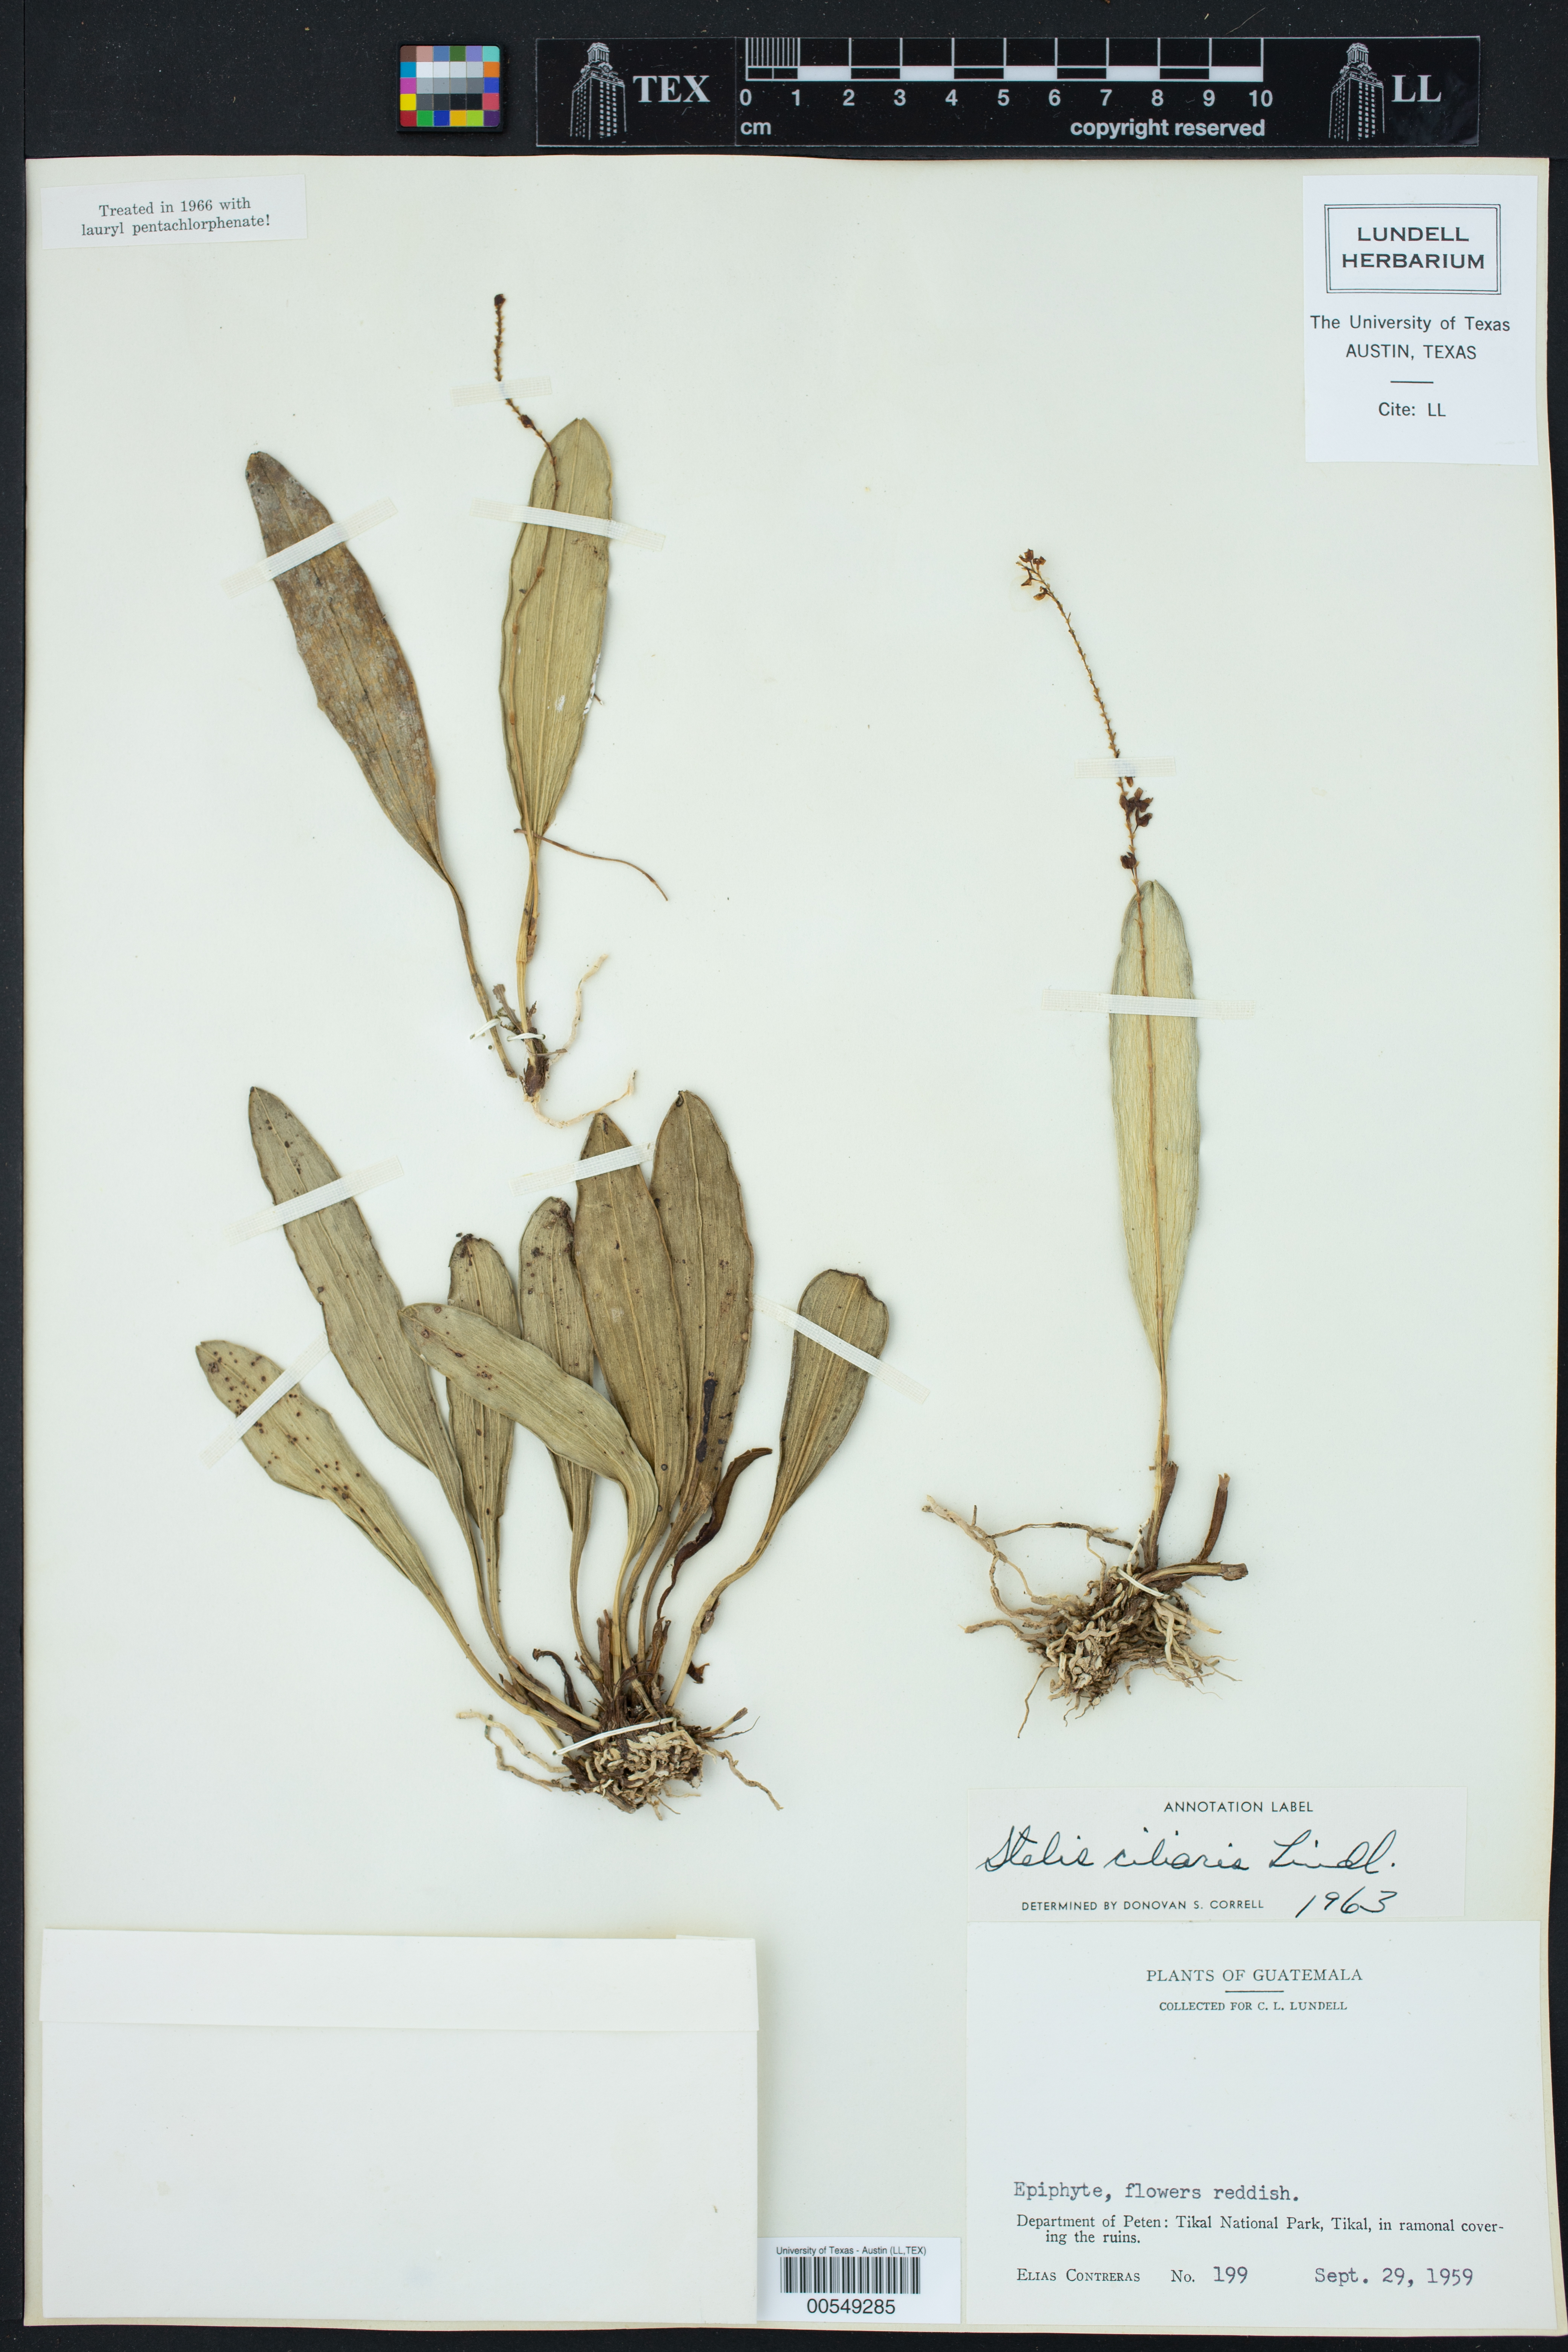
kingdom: Plantae
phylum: Tracheophyta
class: Liliopsida
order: Asparagales
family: Orchidaceae
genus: Stelis
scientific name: Stelis ciliaris
